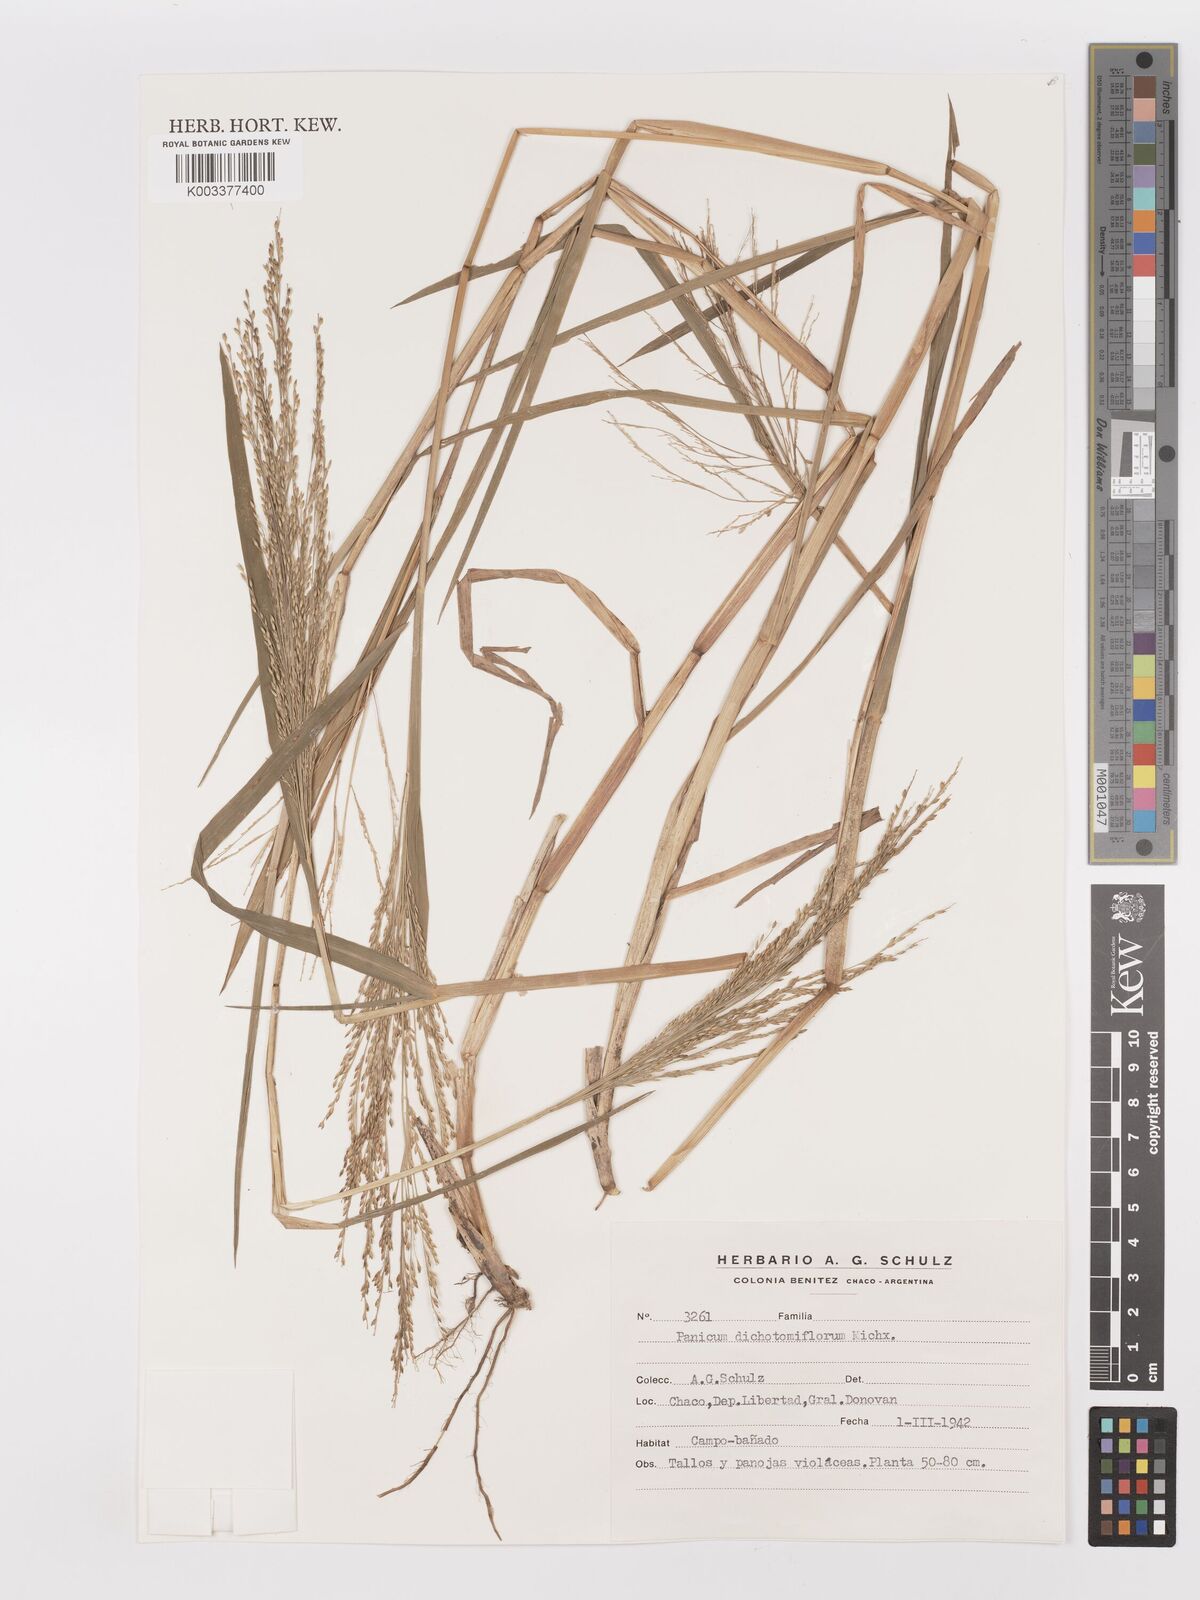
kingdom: Plantae
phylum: Tracheophyta
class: Liliopsida
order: Poales
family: Poaceae
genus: Panicum
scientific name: Panicum dichotomiflorum
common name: Autumn millet
